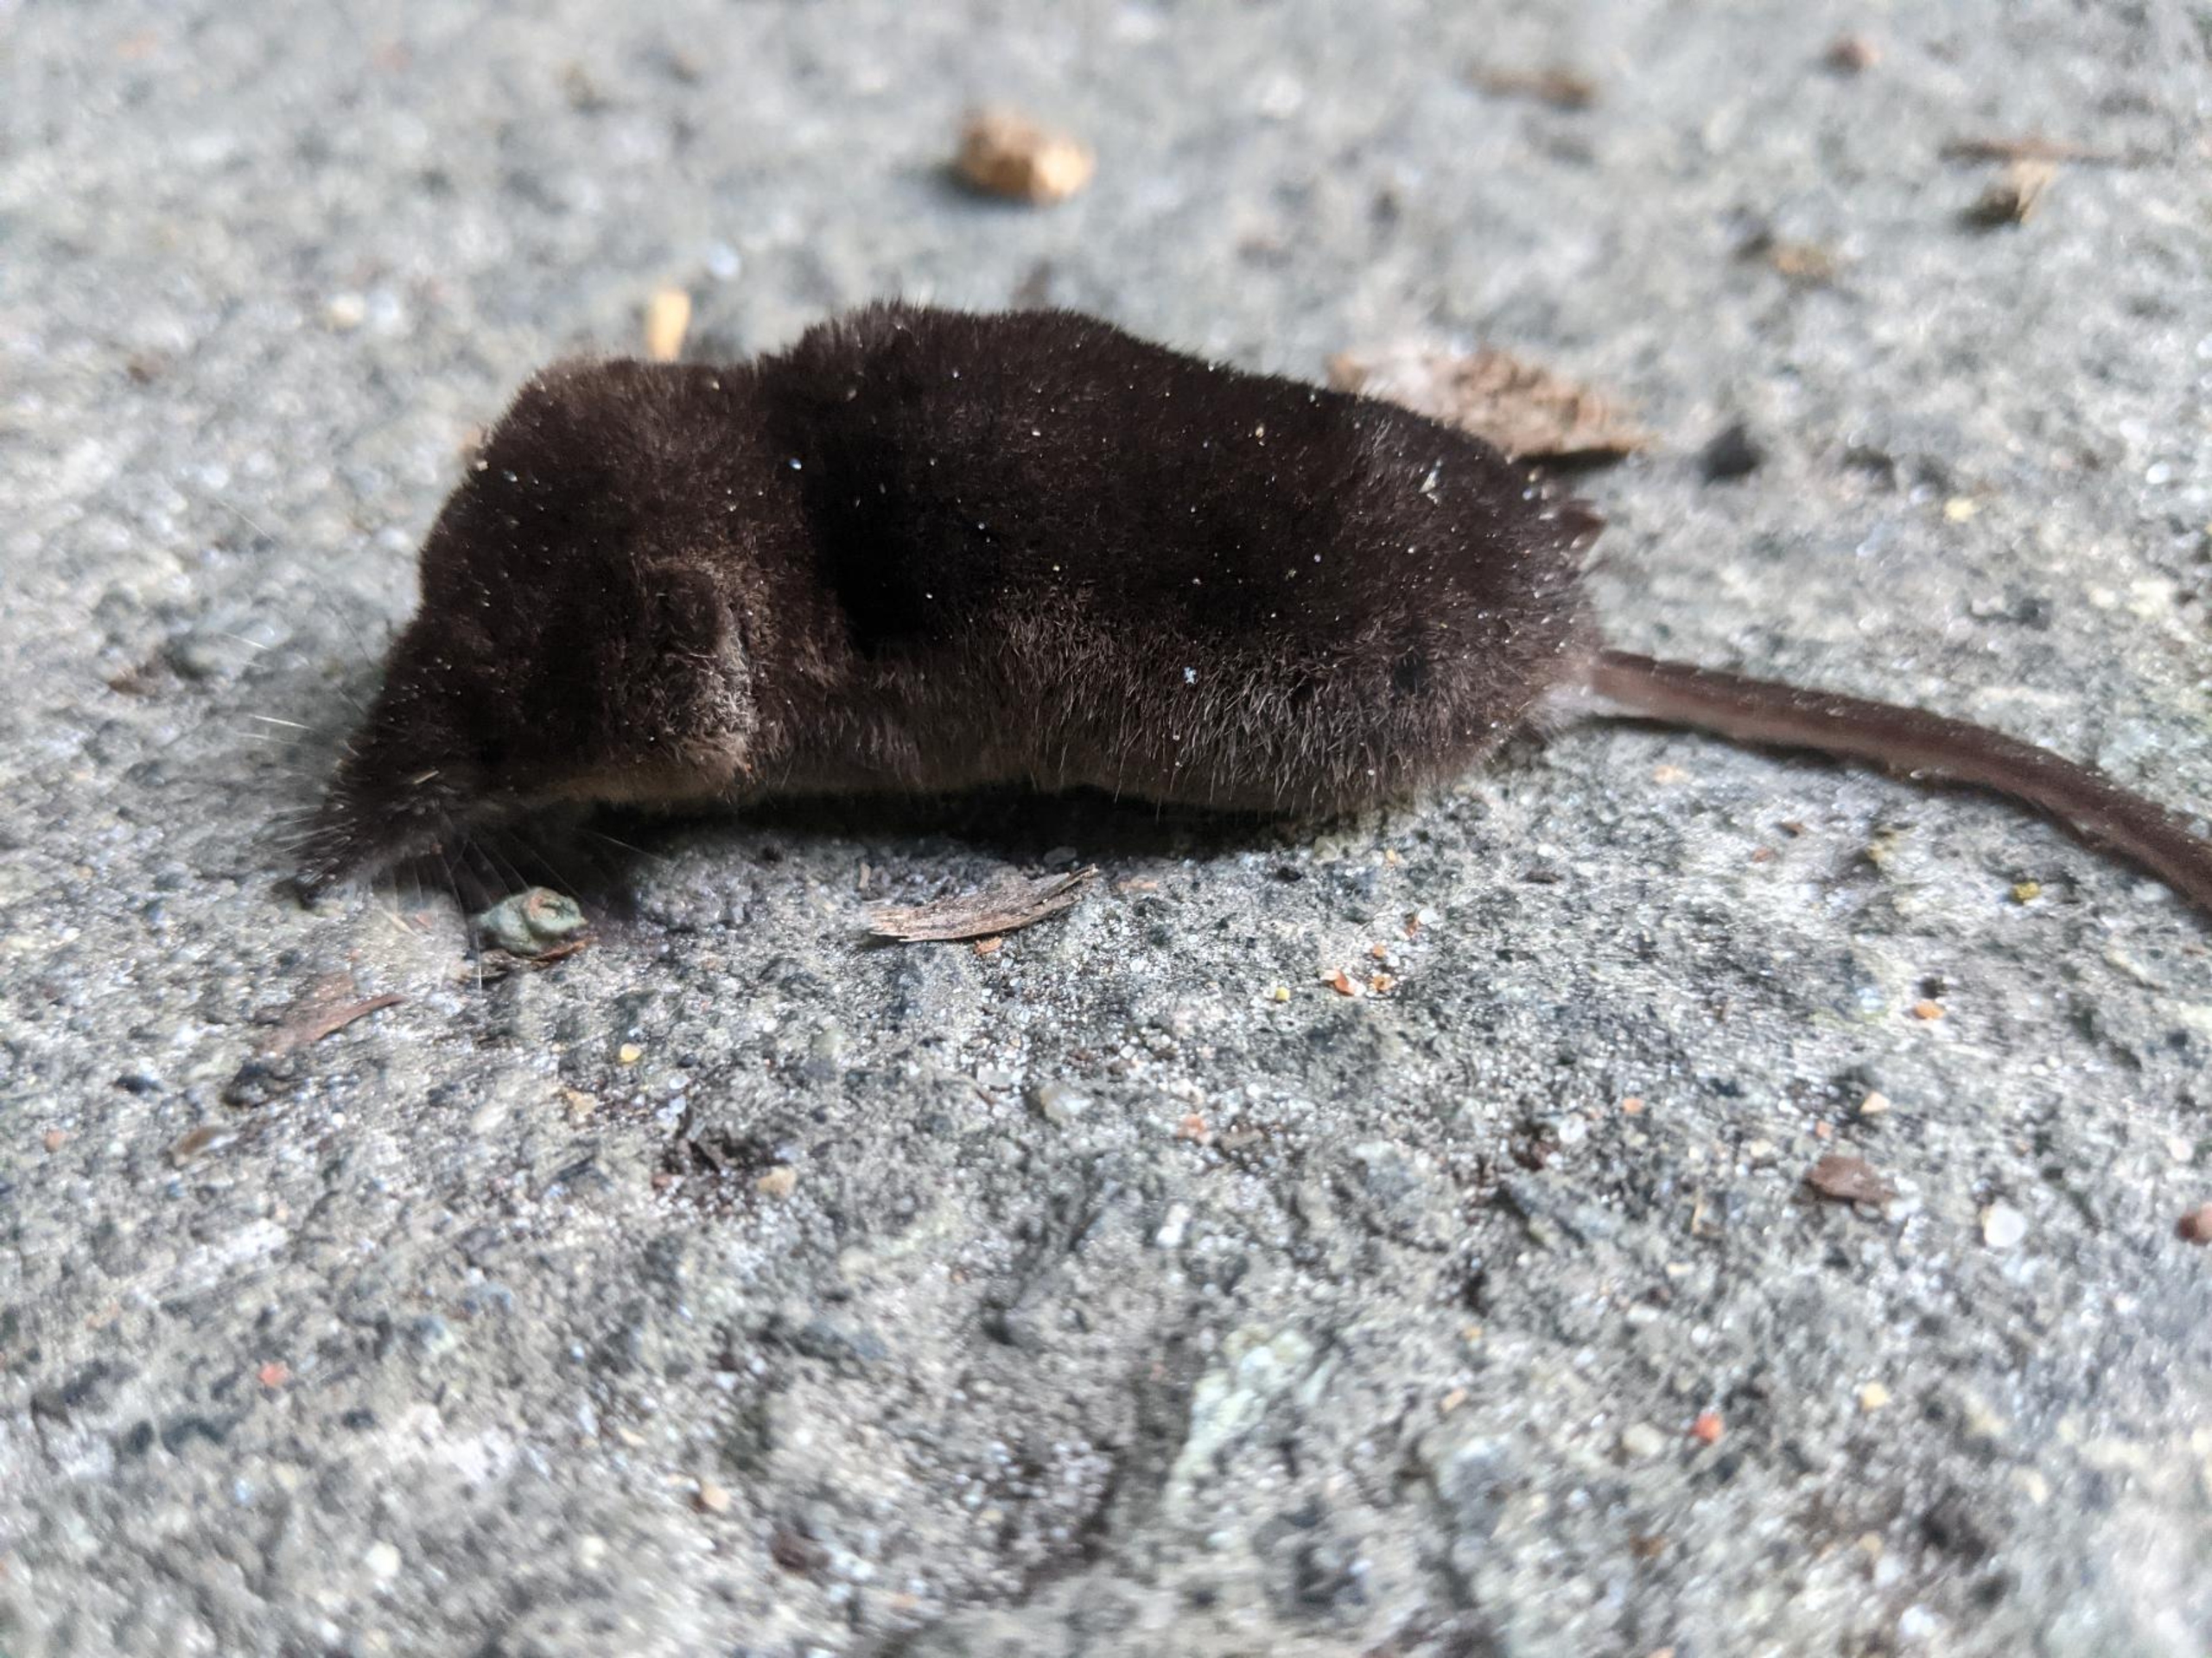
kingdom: Animalia
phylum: Chordata
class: Mammalia
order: Soricomorpha
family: Soricidae
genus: Sorex
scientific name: Sorex araneus
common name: Almindelig spidsmus
